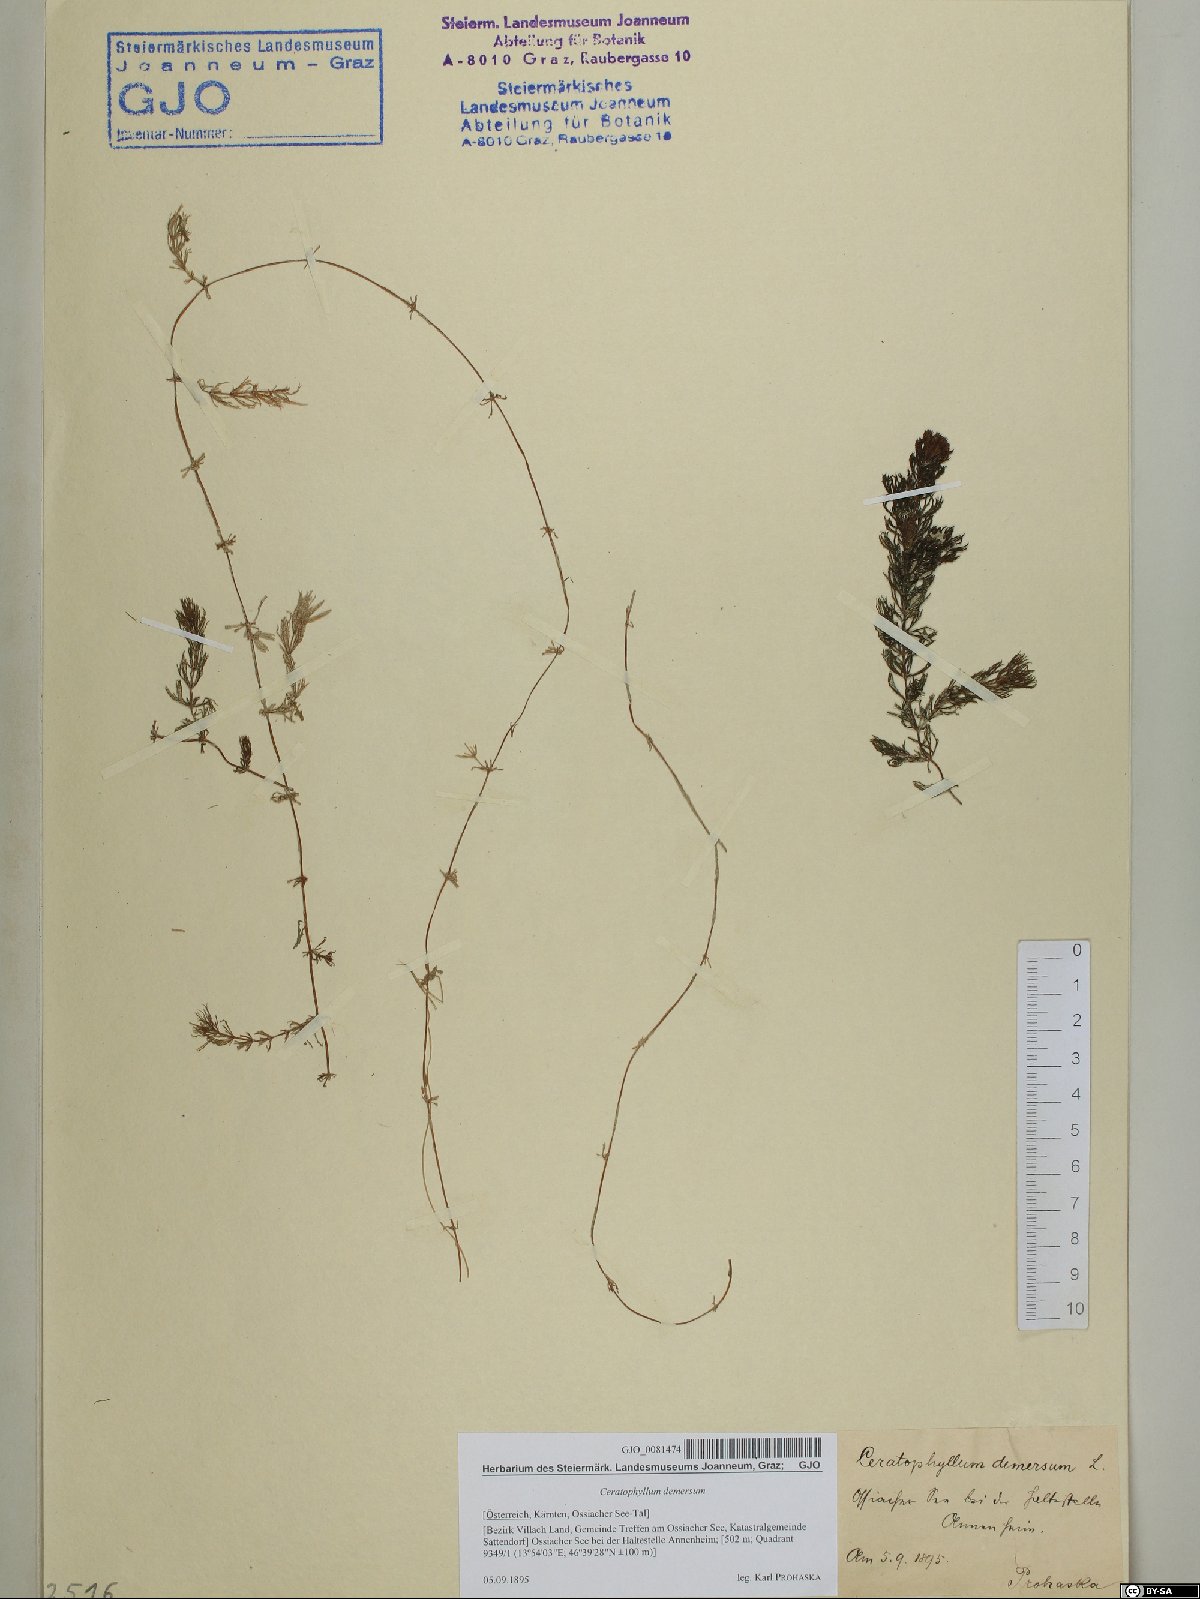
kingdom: Plantae
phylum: Tracheophyta
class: Magnoliopsida
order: Ceratophyllales
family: Ceratophyllaceae
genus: Ceratophyllum
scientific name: Ceratophyllum demersum
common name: Rigid hornwort
